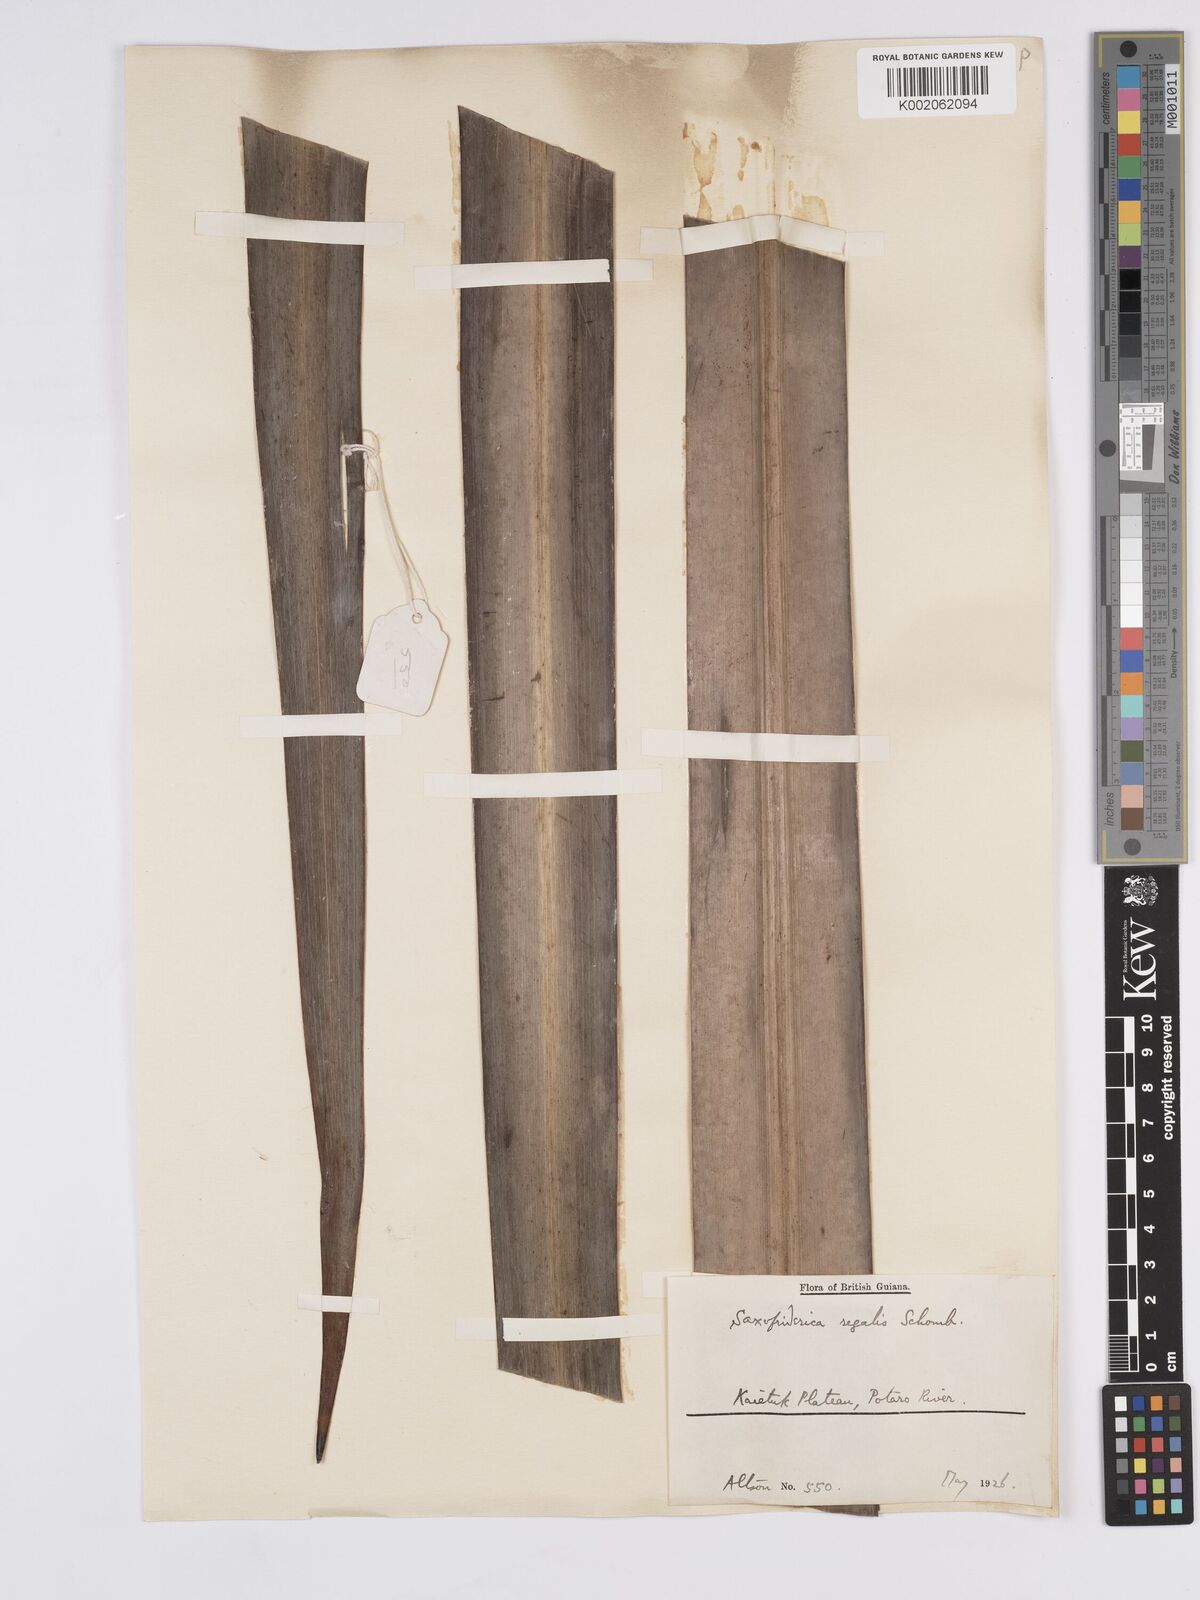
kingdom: Plantae
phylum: Tracheophyta
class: Liliopsida
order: Poales
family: Rapateaceae
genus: Saxofridericia
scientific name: Saxofridericia regalis
